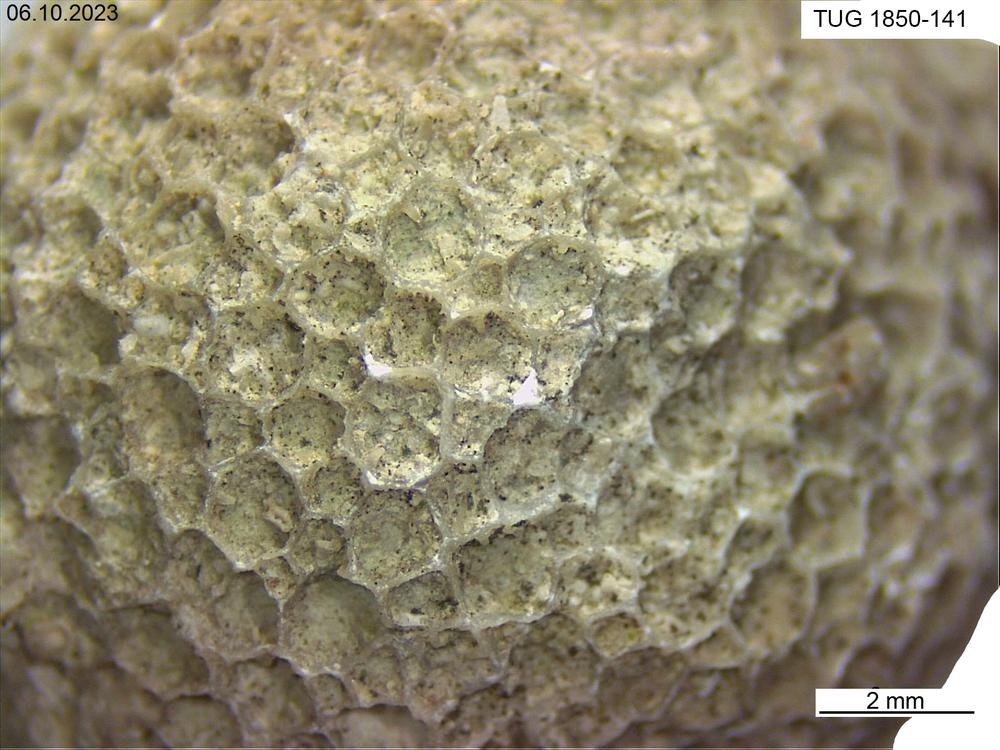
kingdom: Animalia
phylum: Cnidaria
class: Anthozoa
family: Favositidae
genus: Favosites
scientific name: Favosites
